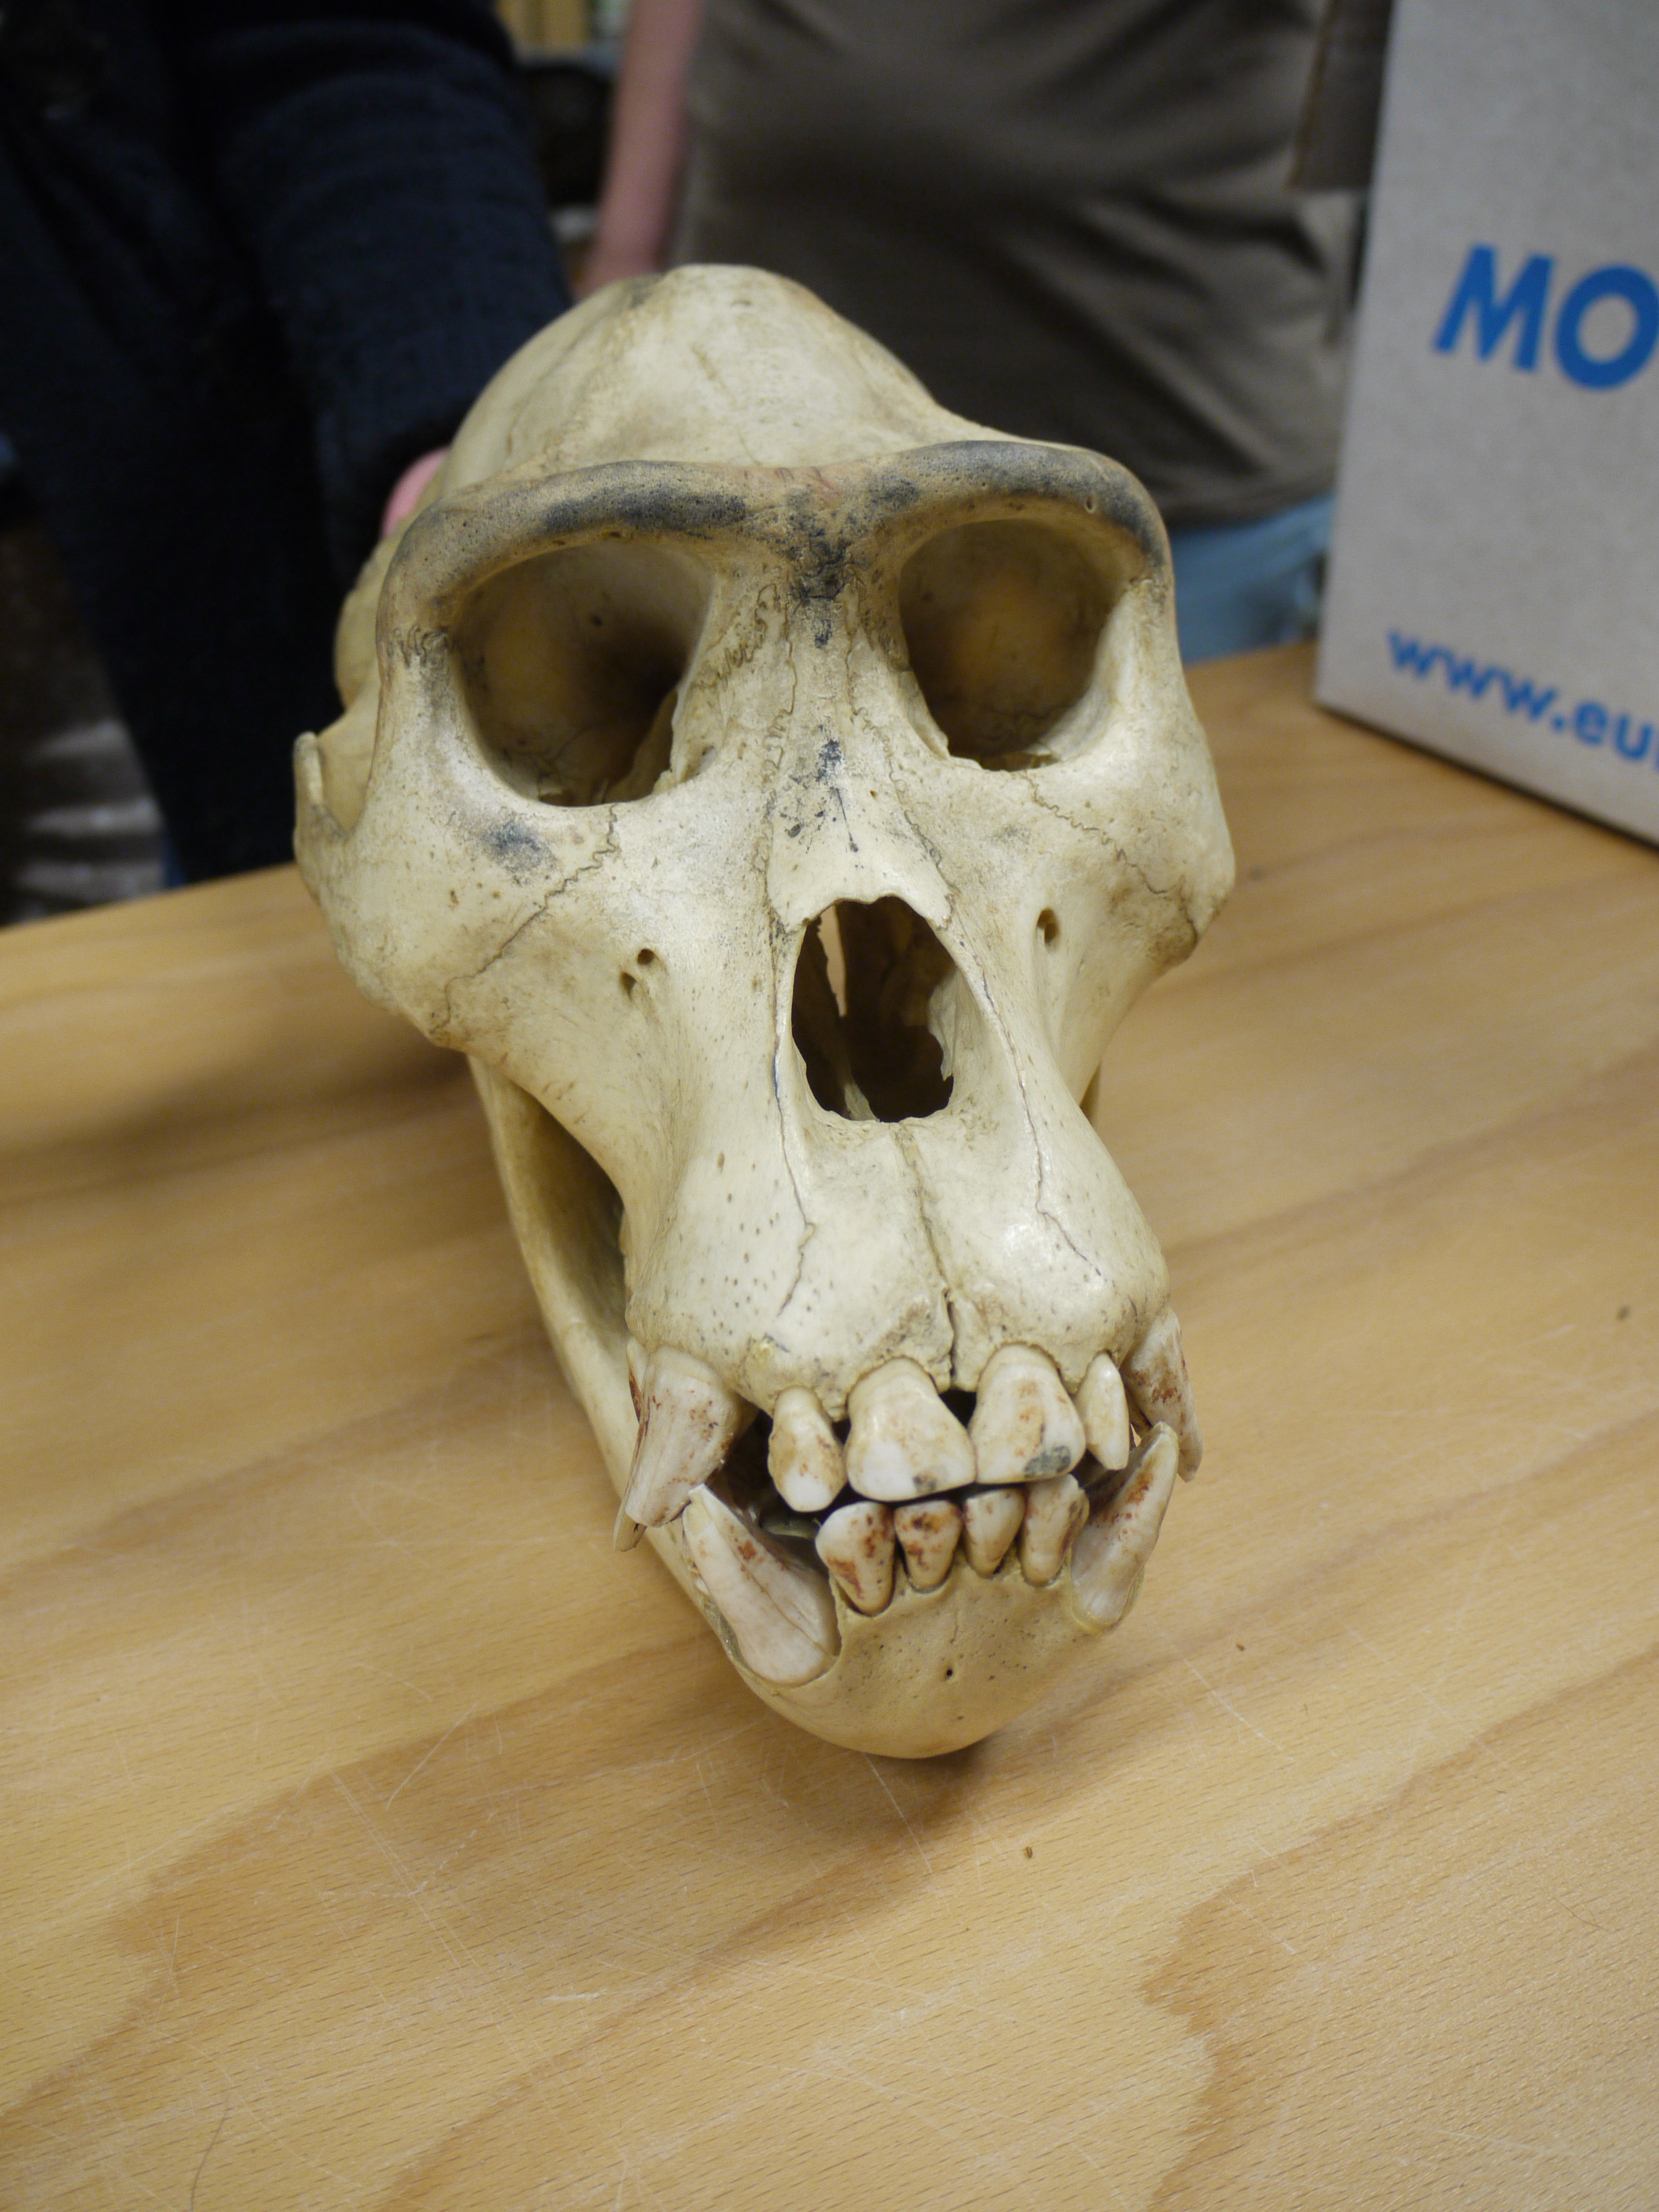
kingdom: Animalia
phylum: Chordata
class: Mammalia
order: Primates
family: Hominidae
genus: Gorilla
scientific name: Gorilla gorilla
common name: Western gorilla
